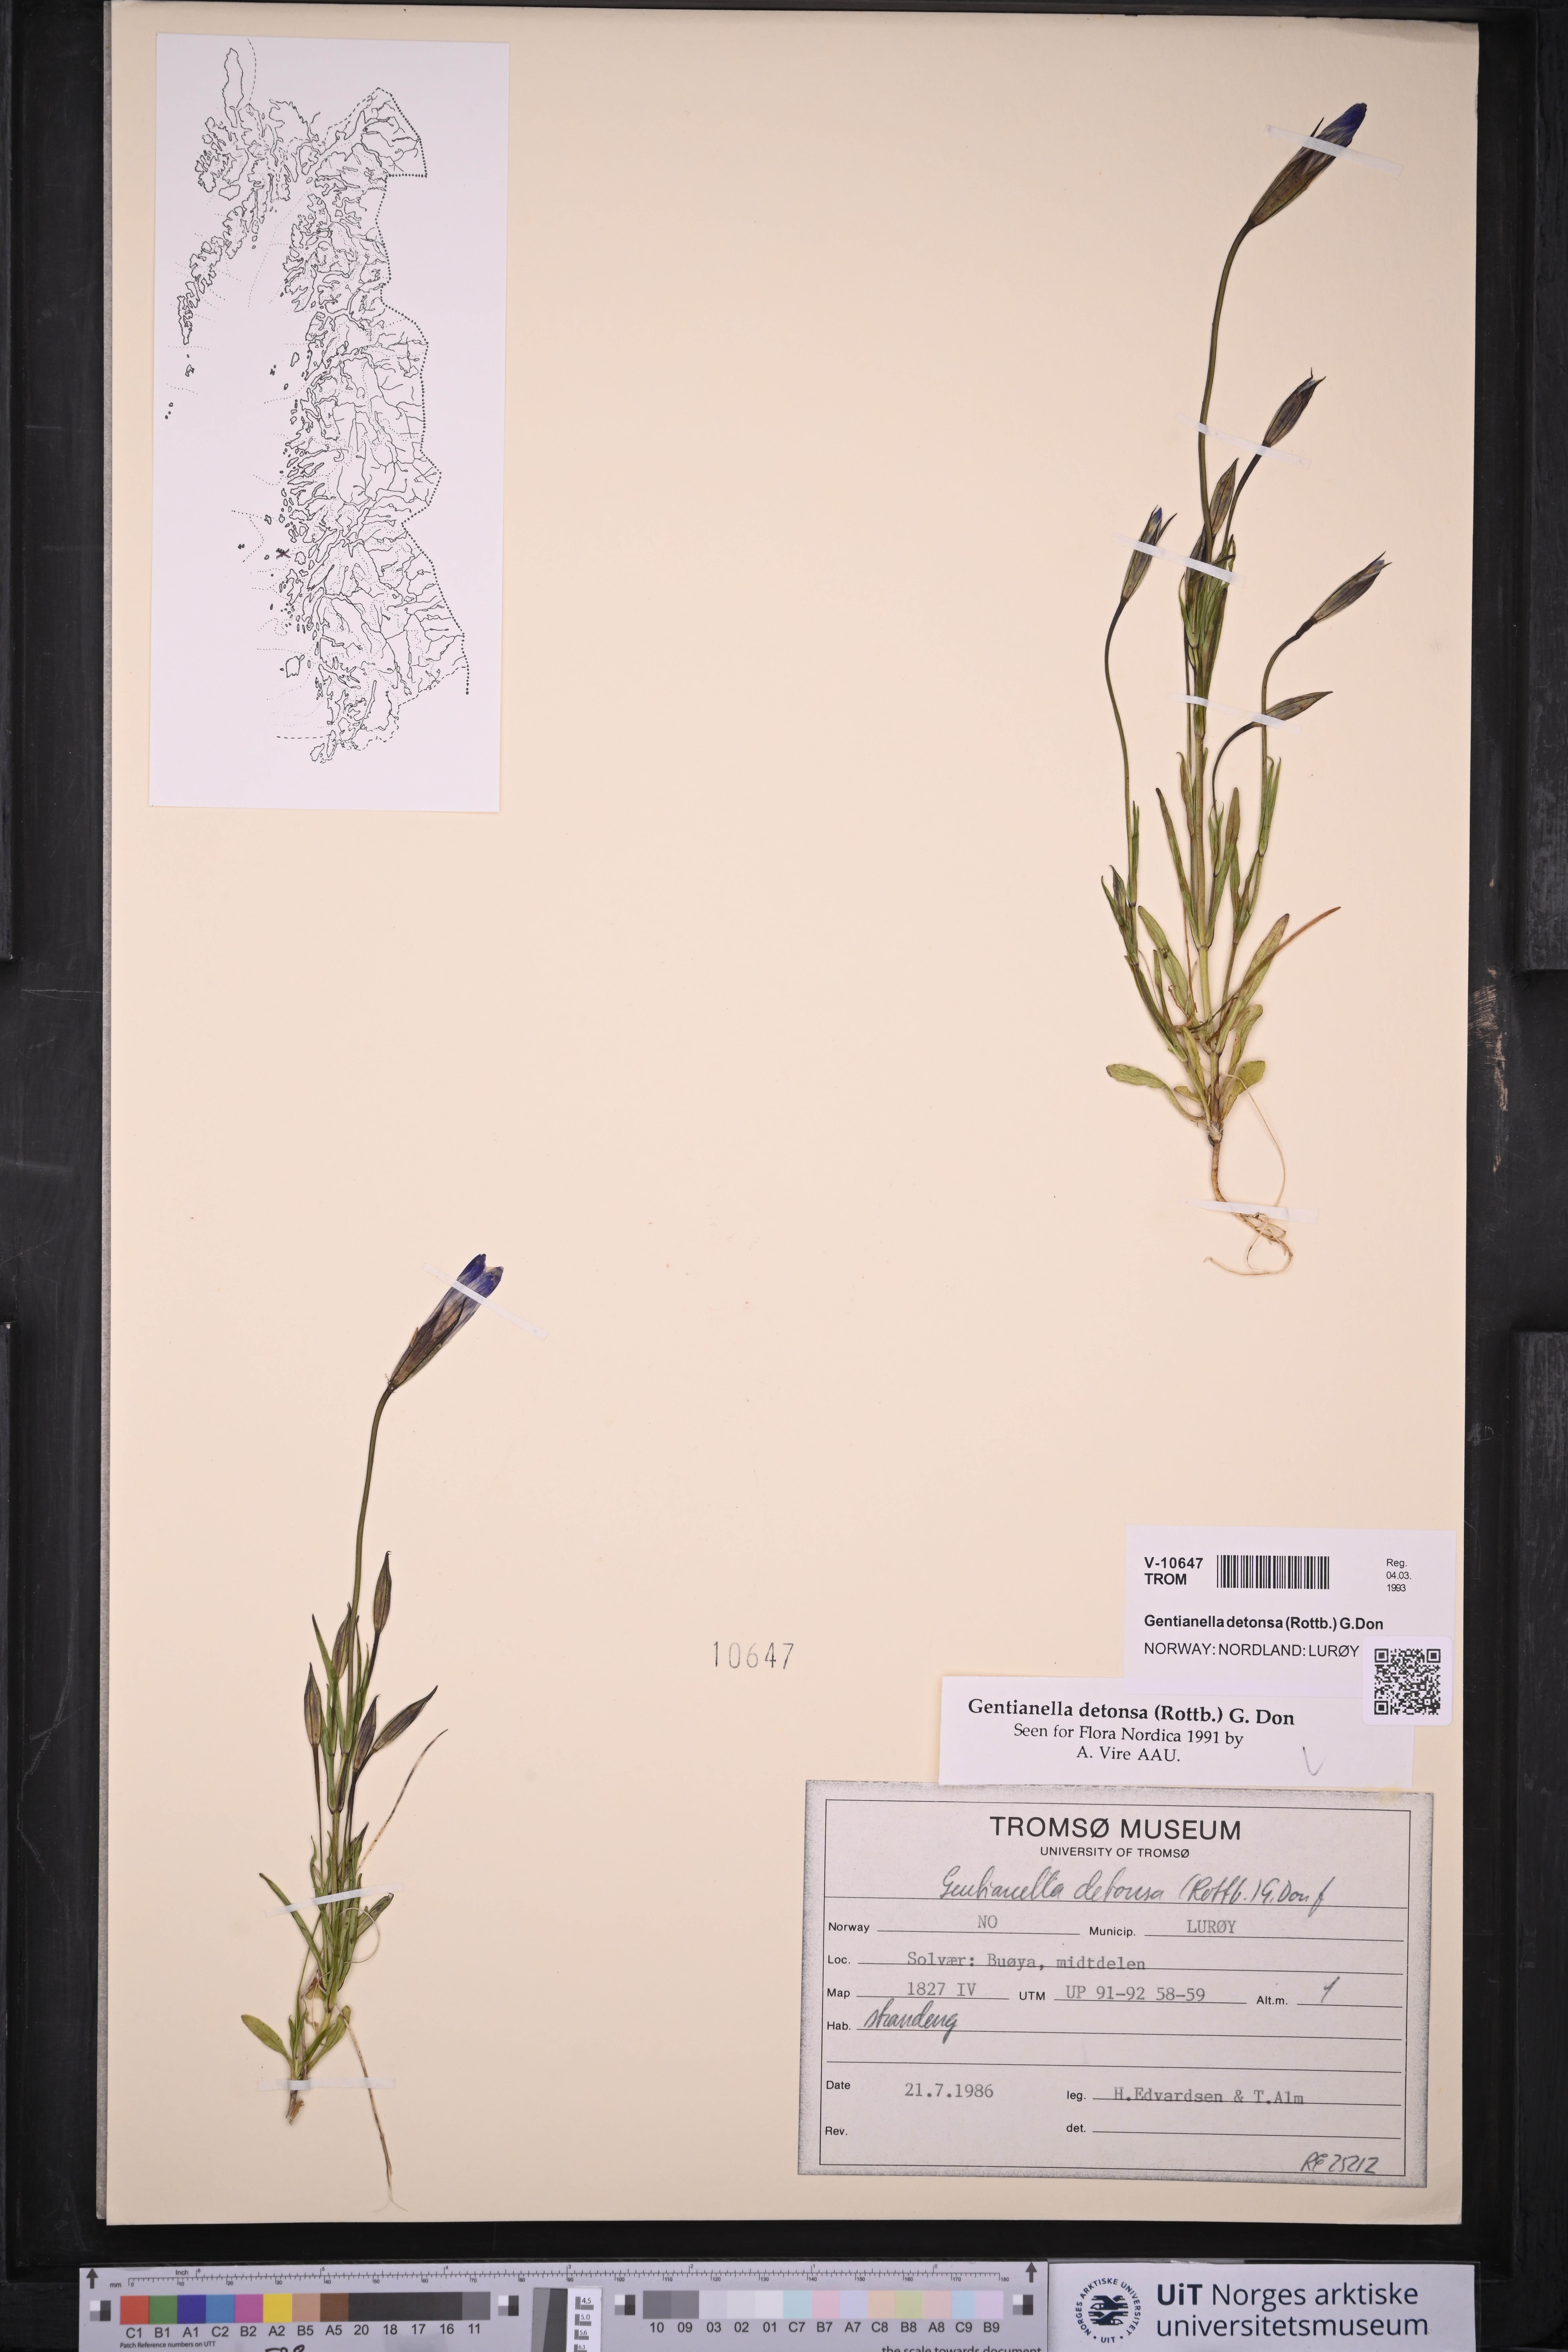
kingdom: Plantae
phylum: Tracheophyta
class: Magnoliopsida
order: Gentianales
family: Gentianaceae
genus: Gentianopsis
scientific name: Gentianopsis detonsa
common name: Fringed-gentian
